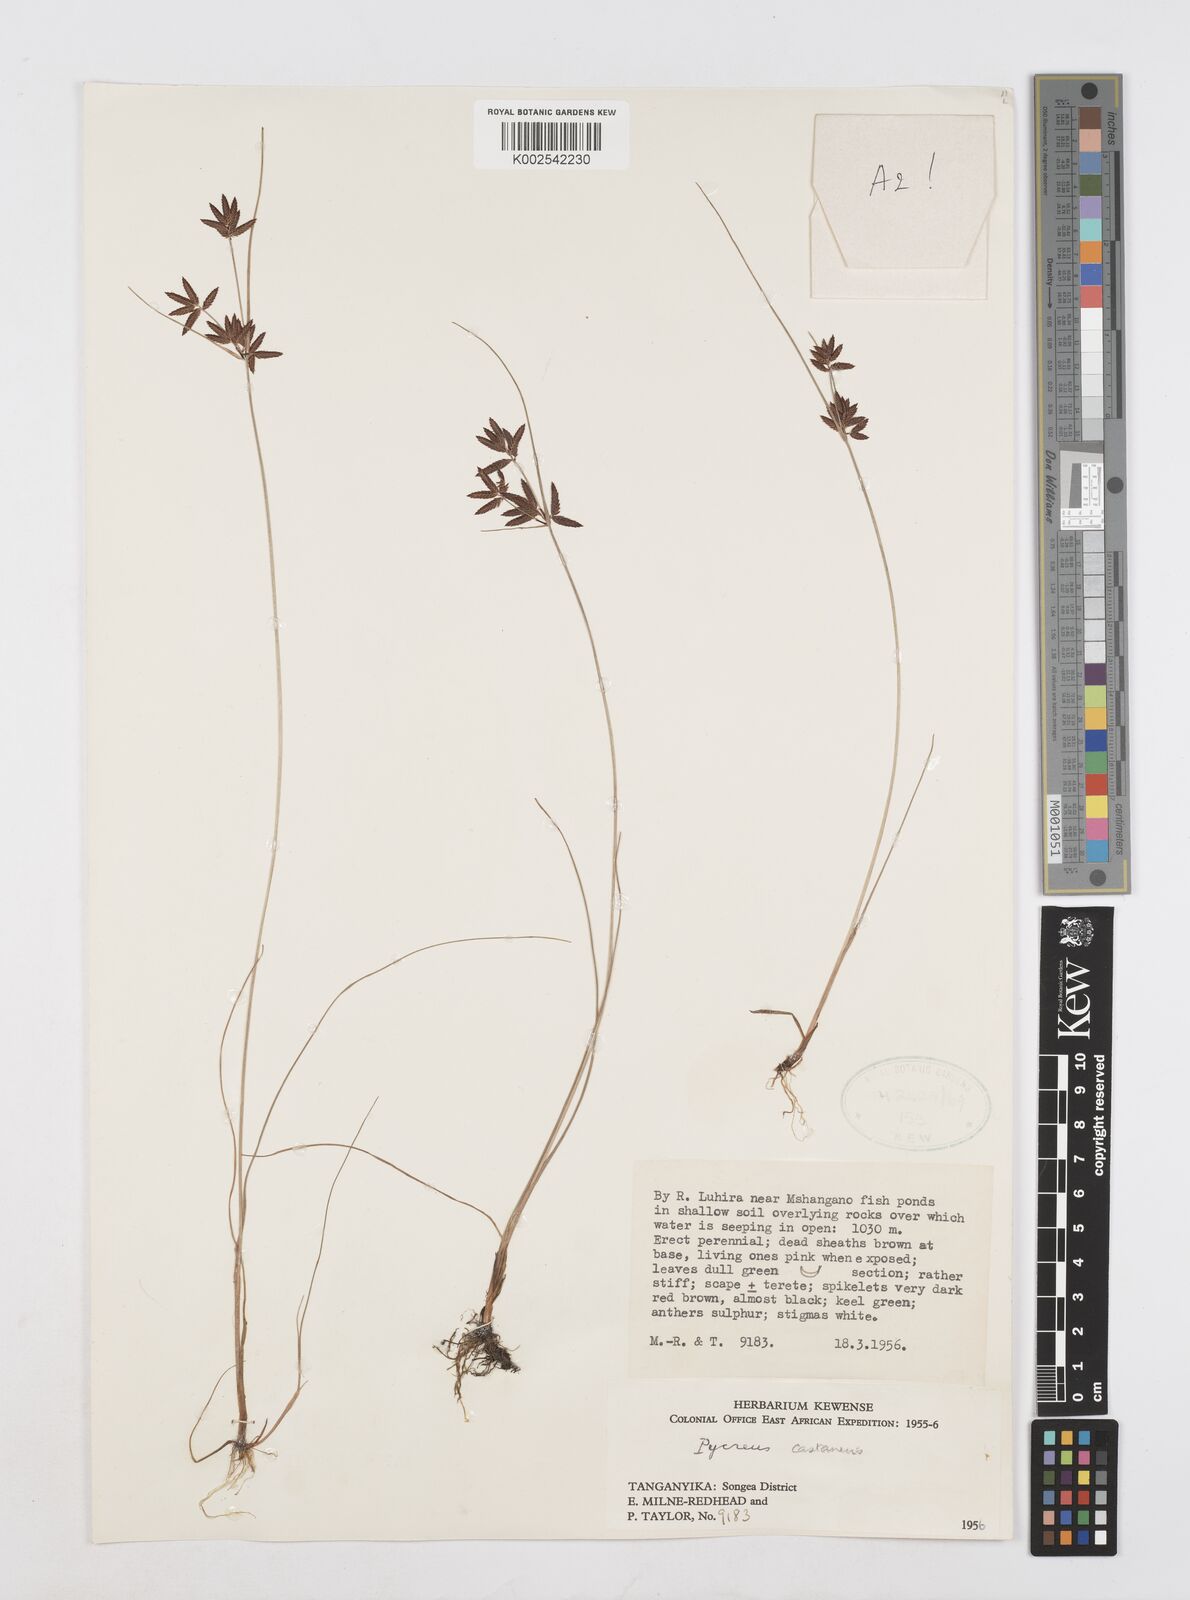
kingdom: Plantae
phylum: Tracheophyta
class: Liliopsida
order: Poales
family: Cyperaceae
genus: Cyperus
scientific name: Cyperus
